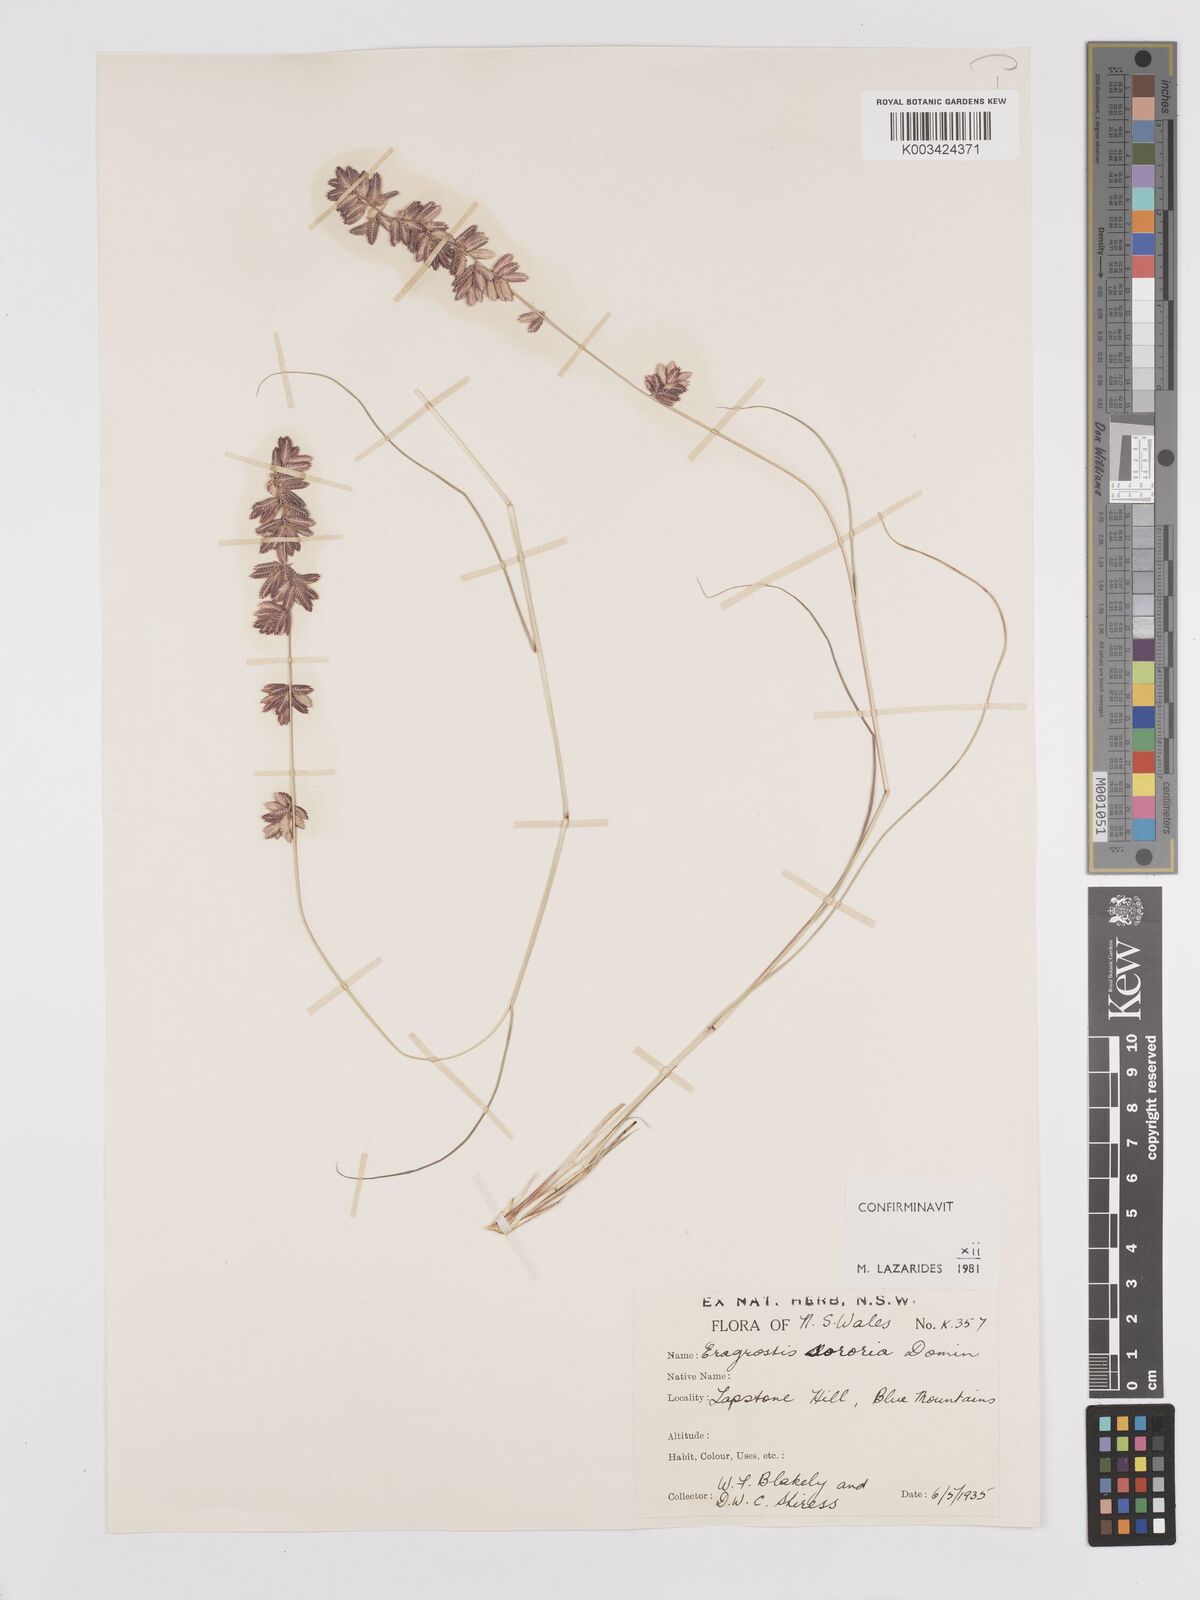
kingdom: Plantae
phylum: Tracheophyta
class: Liliopsida
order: Poales
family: Poaceae
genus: Eragrostis
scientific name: Eragrostis sororia
